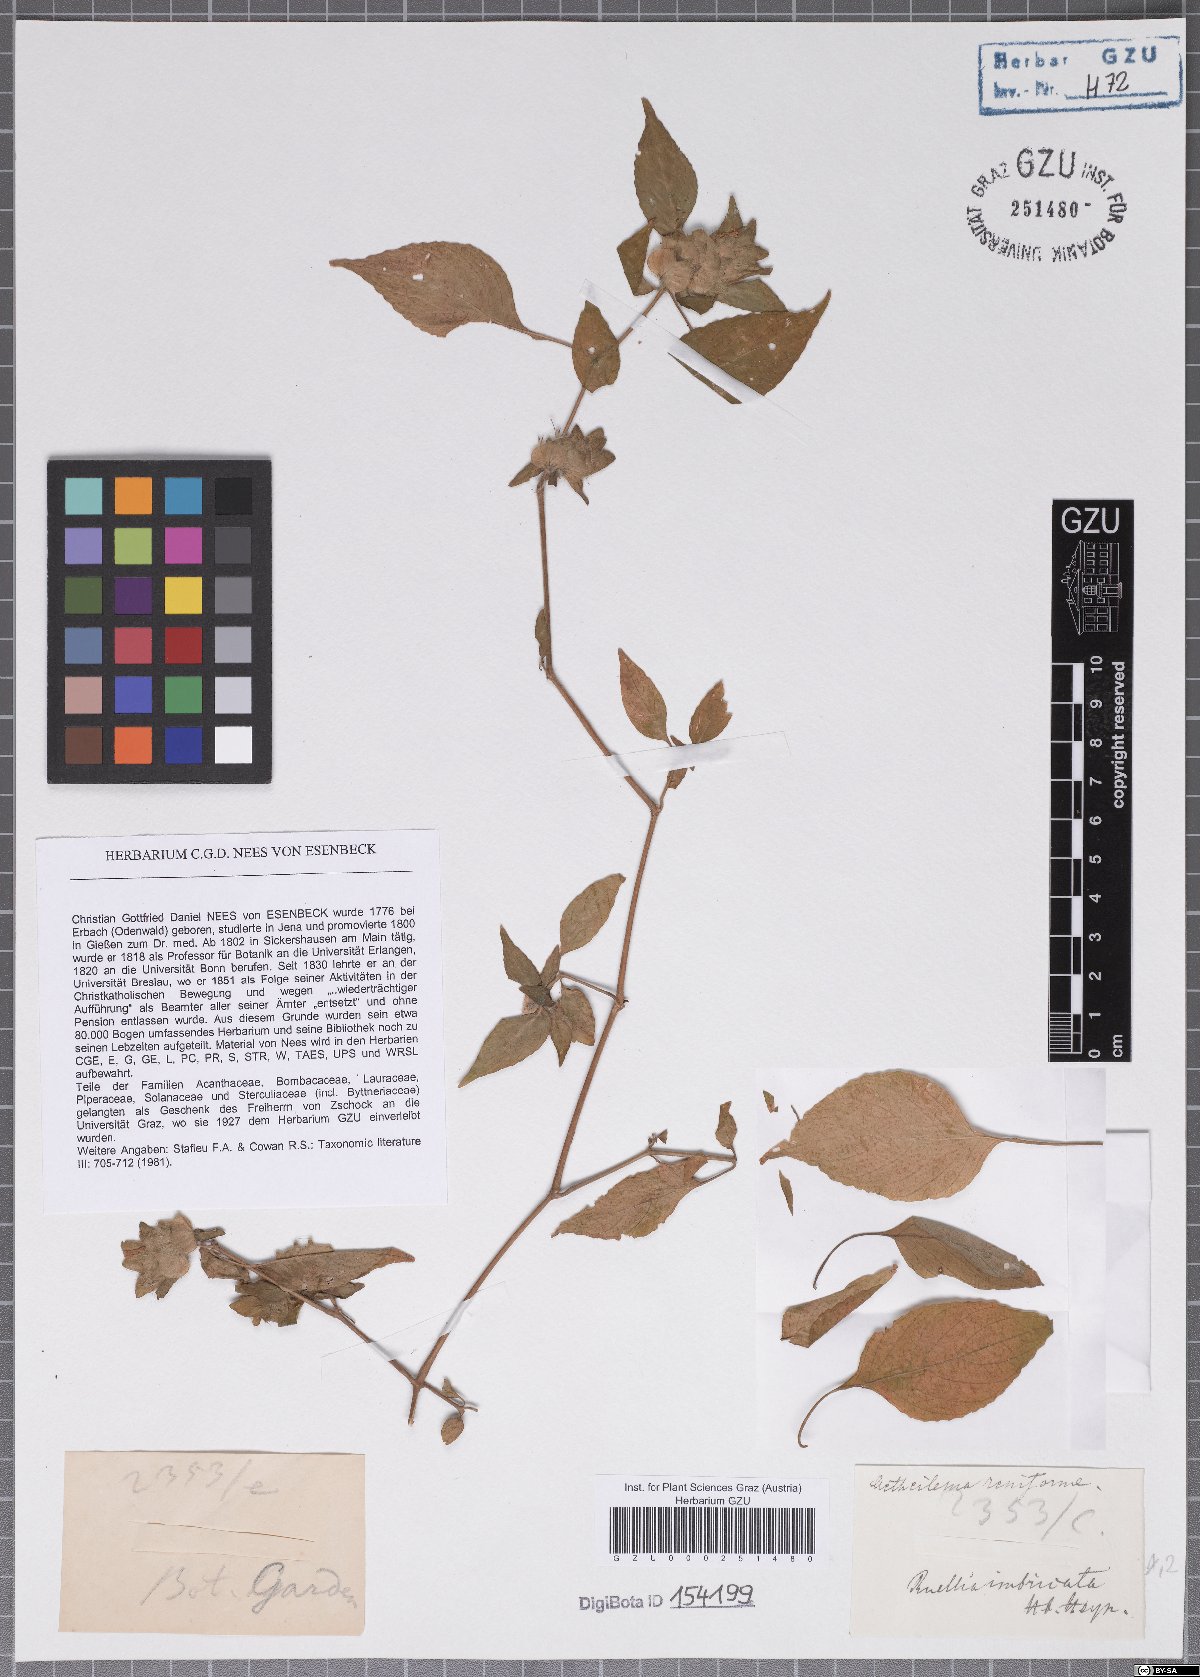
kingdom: Plantae
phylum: Tracheophyta
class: Magnoliopsida
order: Lamiales
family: Acanthaceae
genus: Phaulopsis
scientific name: Phaulopsis dorsiflora
